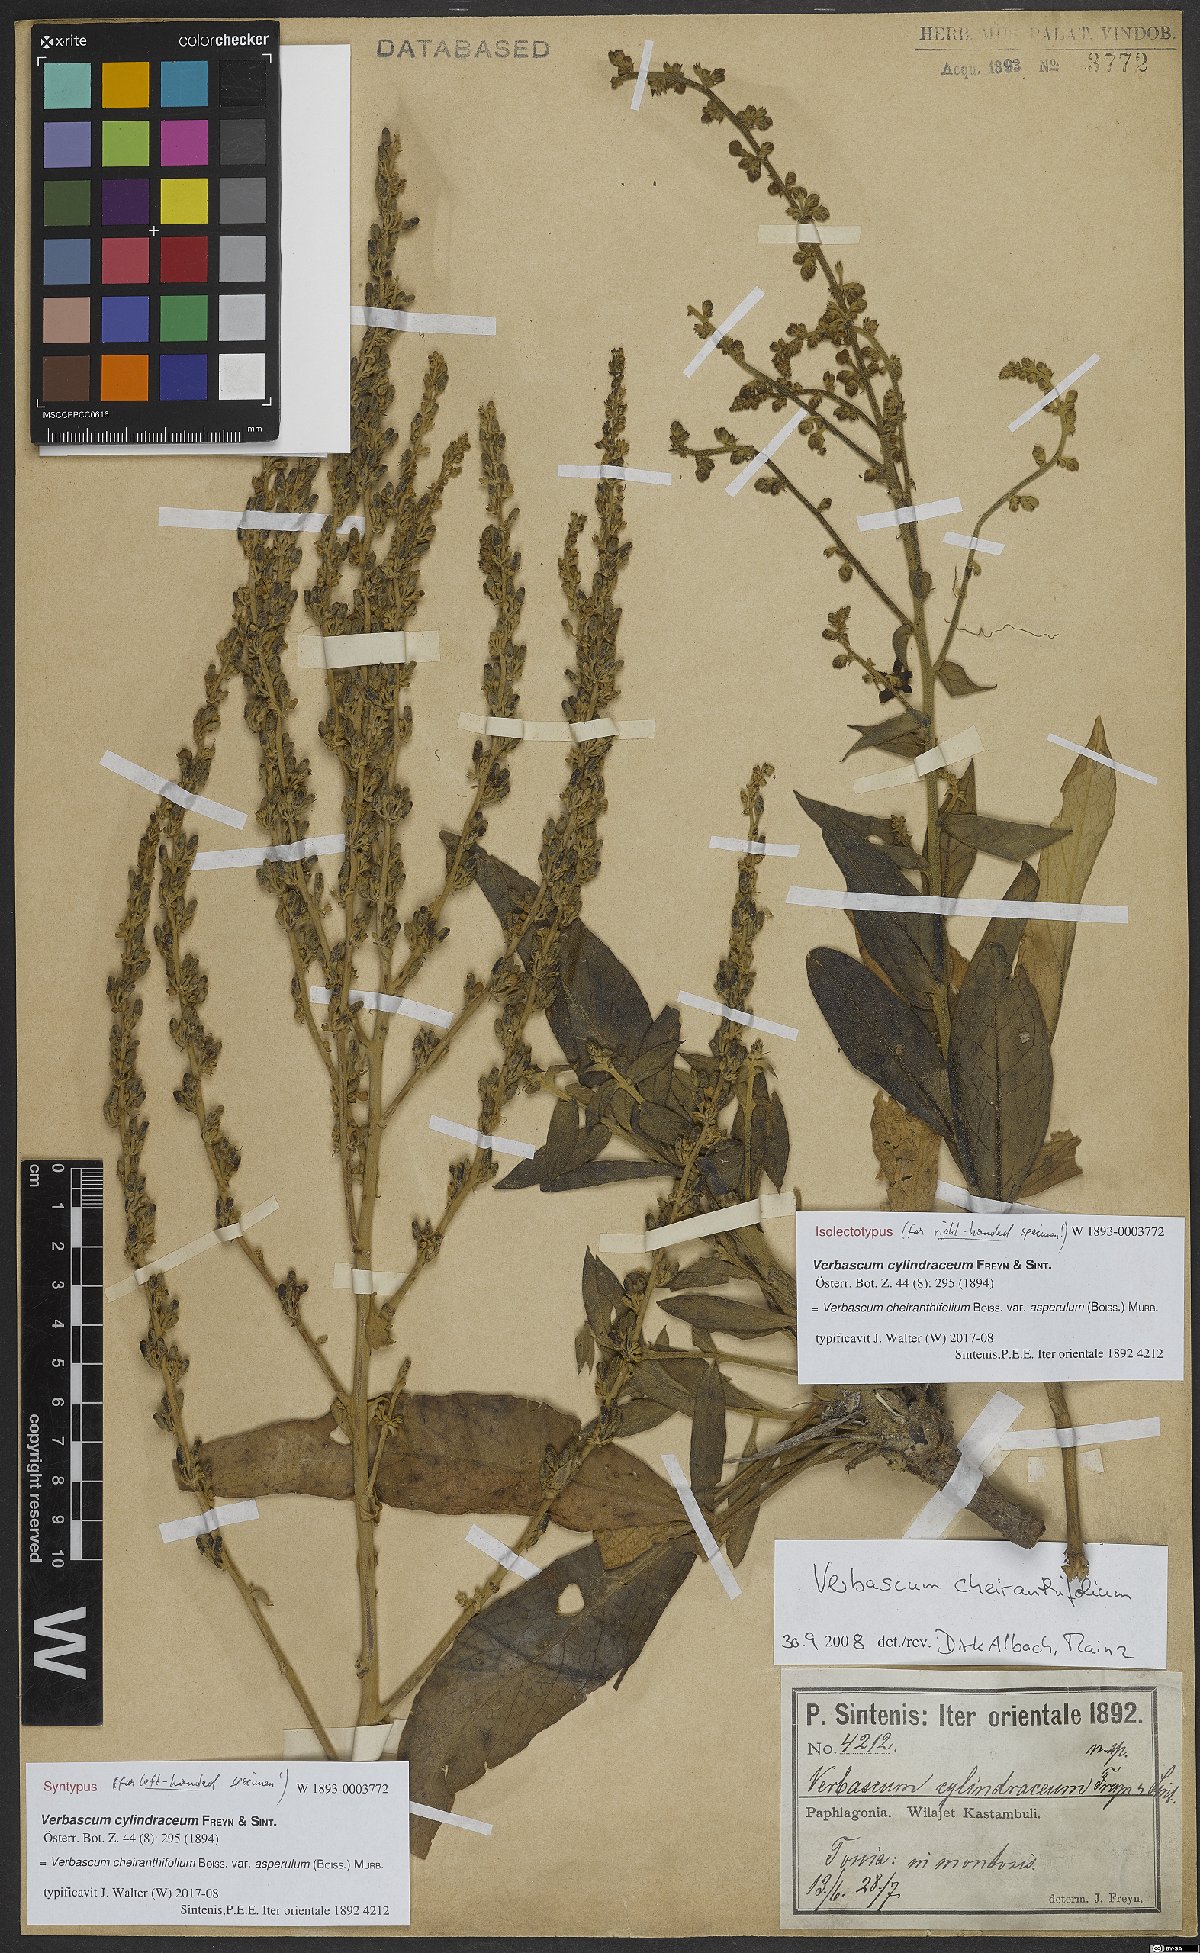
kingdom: Plantae
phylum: Tracheophyta
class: Magnoliopsida
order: Lamiales
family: Scrophulariaceae
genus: Verbascum
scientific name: Verbascum cheiranthifollum
